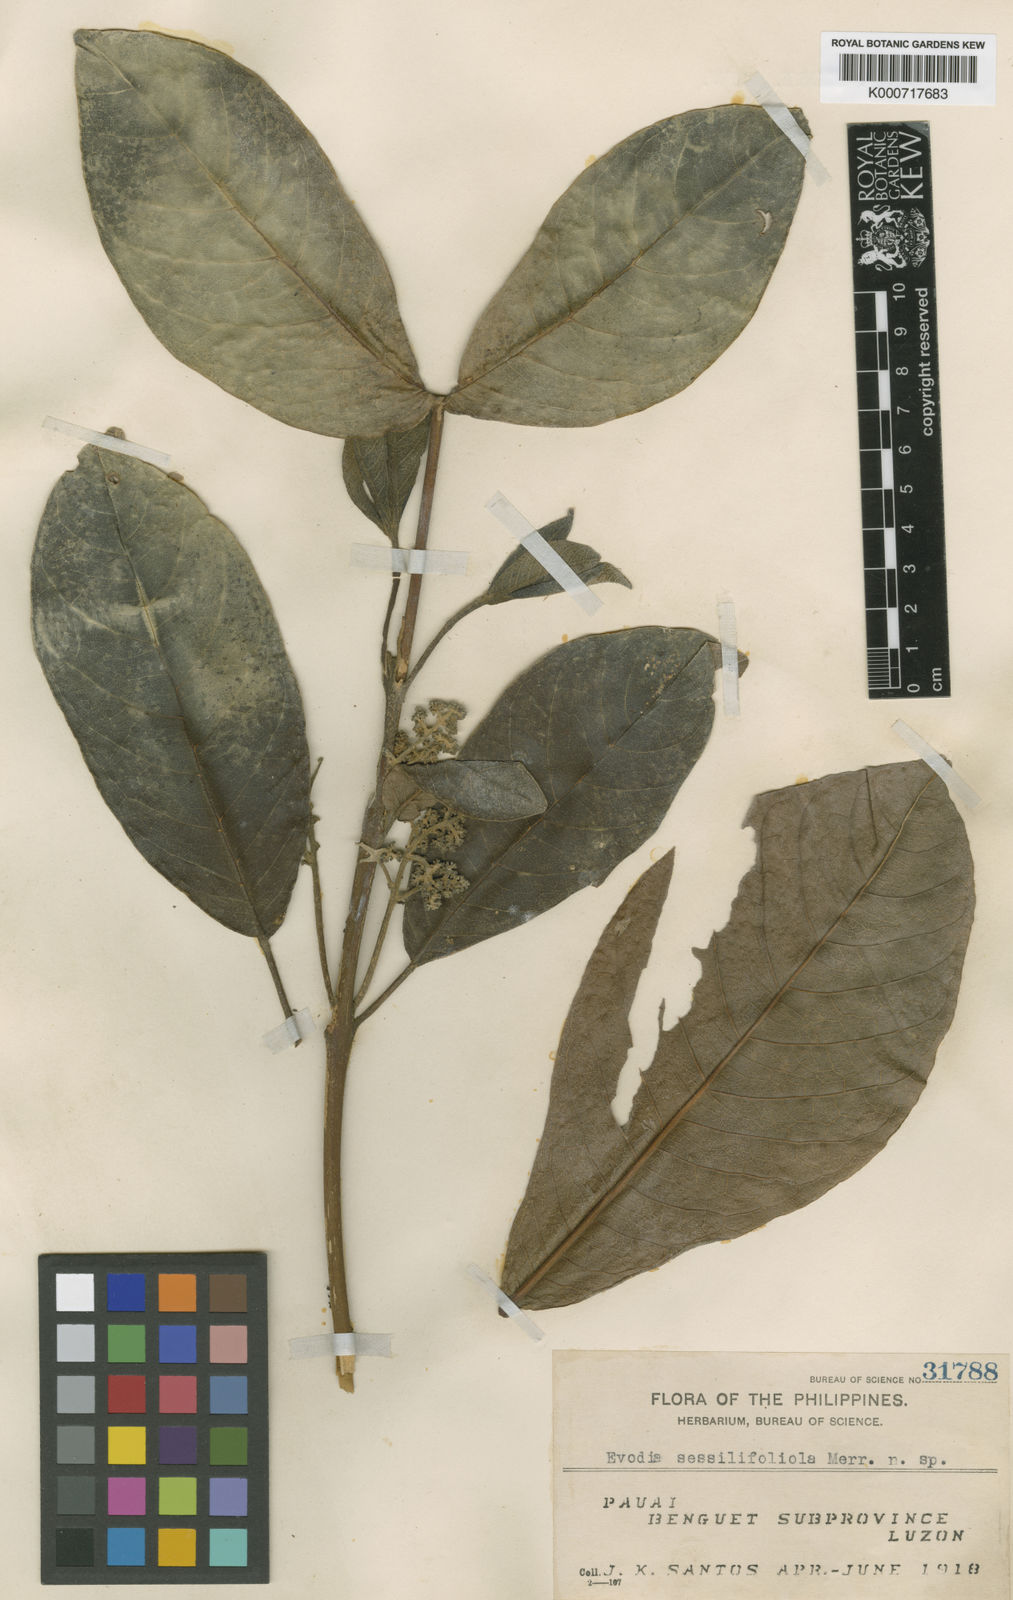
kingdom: Plantae
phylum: Tracheophyta
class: Magnoliopsida
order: Sapindales
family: Rutaceae
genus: Melicope
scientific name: Melicope sessilifoliola
